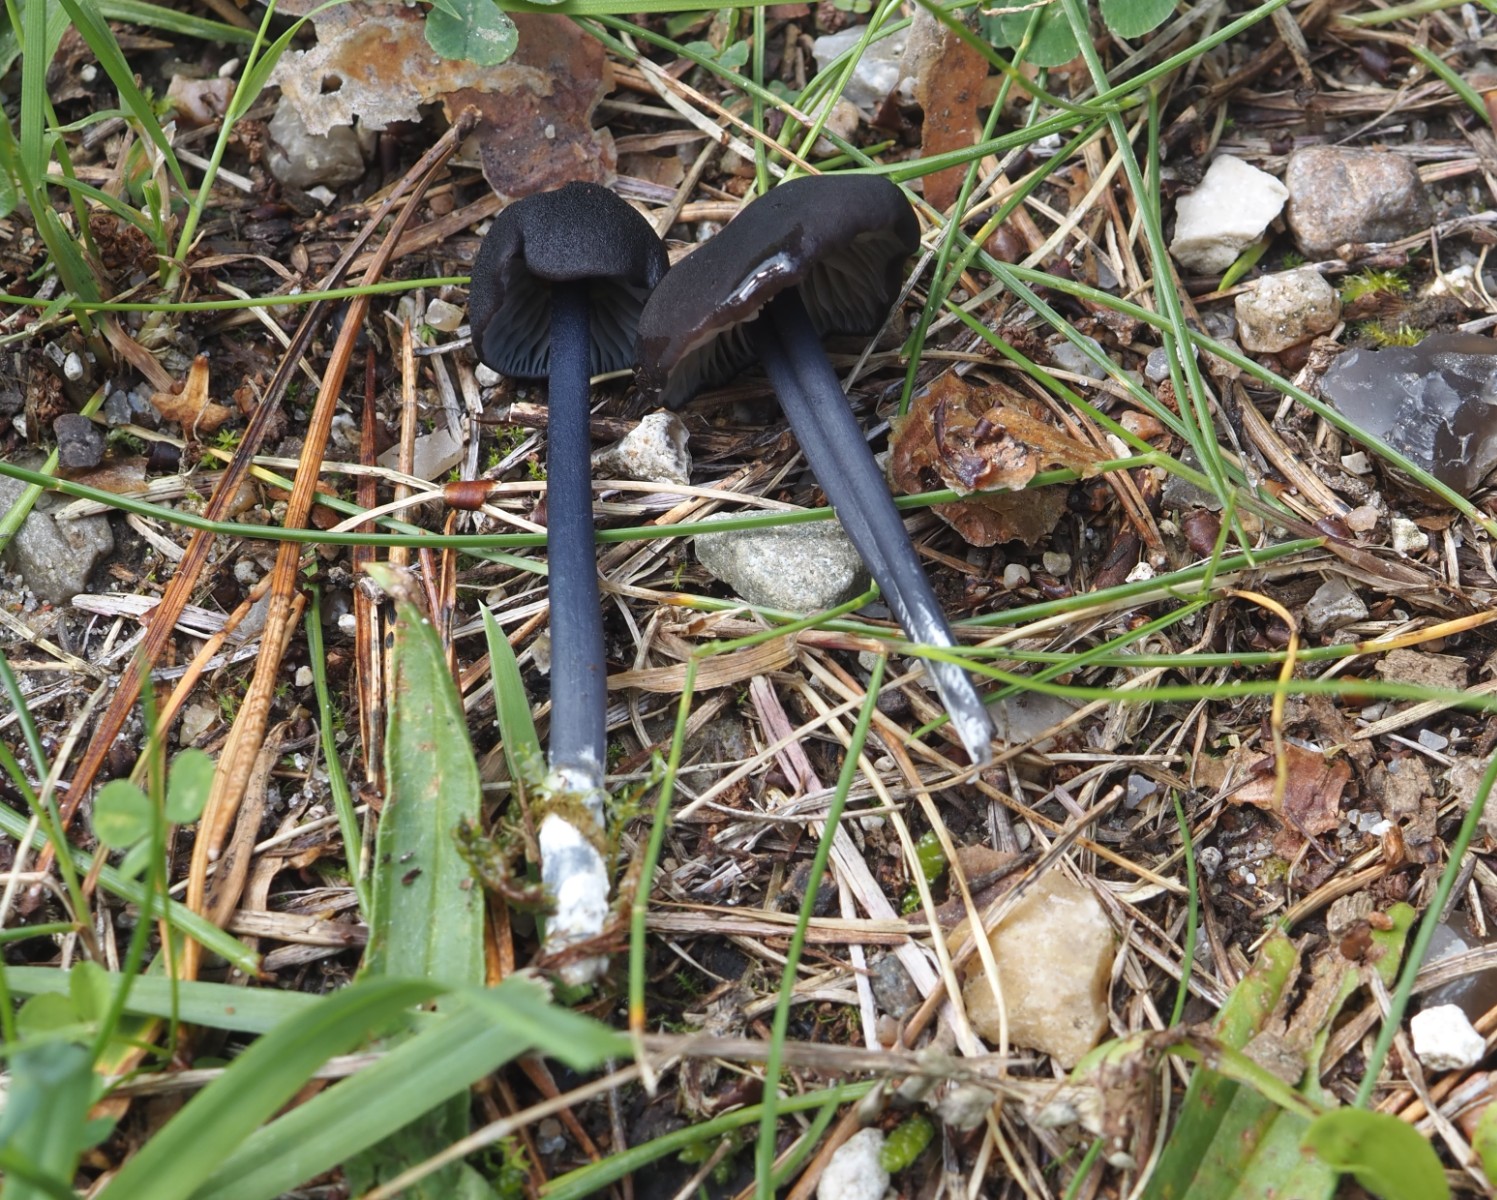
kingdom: Fungi
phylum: Basidiomycota
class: Agaricomycetes
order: Agaricales
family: Entolomataceae
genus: Entoloma
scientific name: Entoloma chalybeum
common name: blåbladet rødblad
